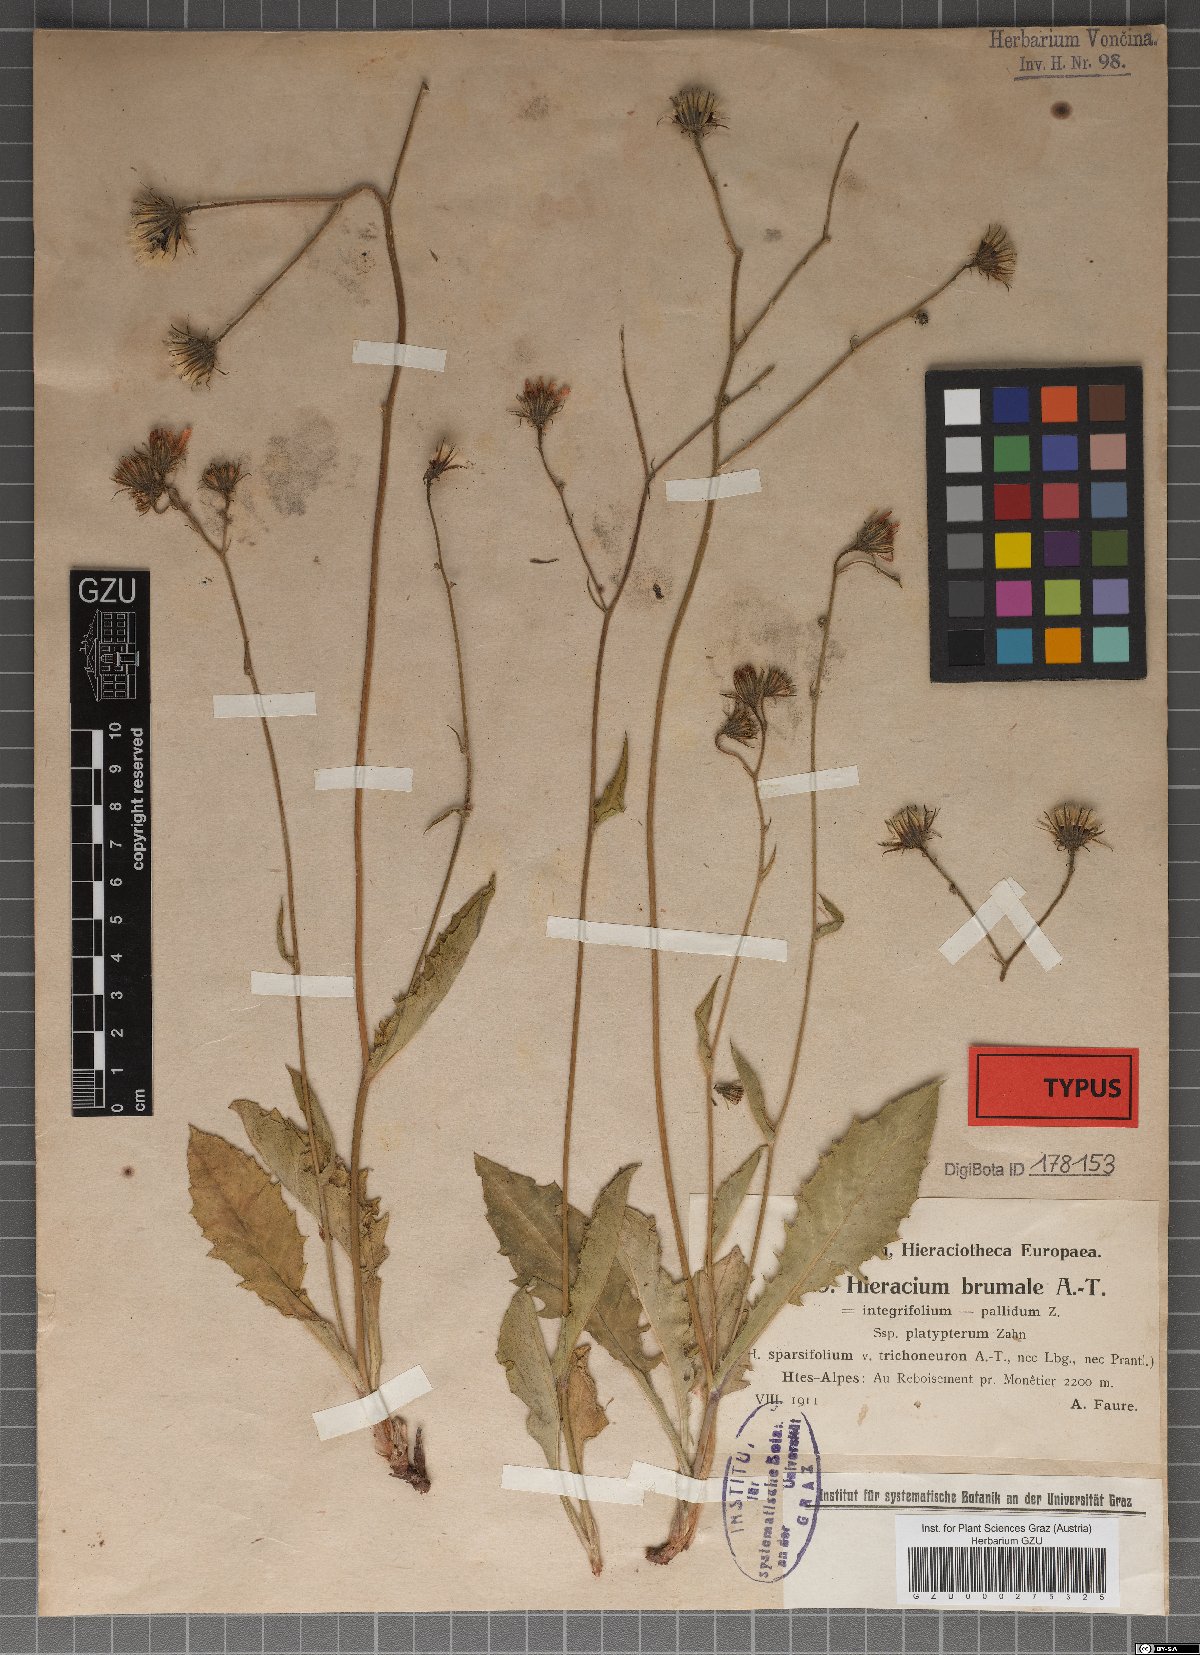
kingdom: Plantae
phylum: Tracheophyta
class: Magnoliopsida
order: Asterales
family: Asteraceae
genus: Hieracium
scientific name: Hieracium viride
